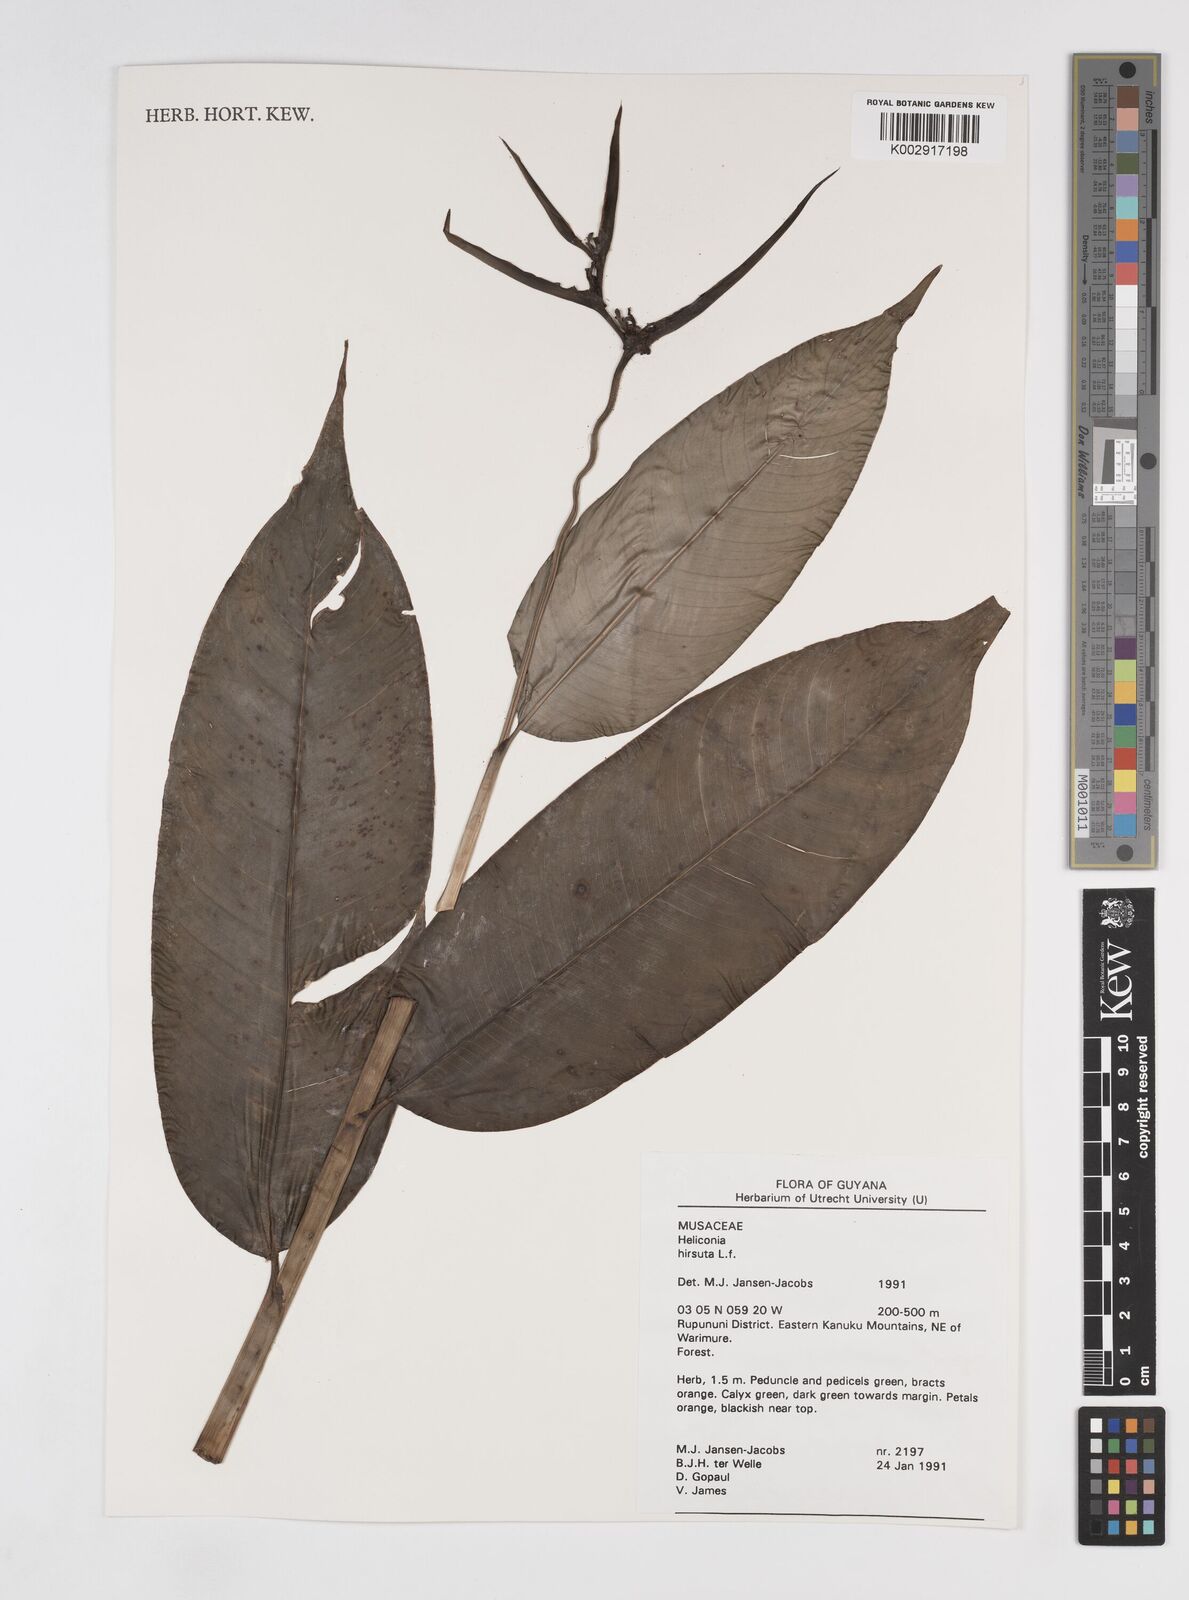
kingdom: Plantae
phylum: Tracheophyta
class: Liliopsida
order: Zingiberales
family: Heliconiaceae
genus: Heliconia
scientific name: Heliconia hirsuta
